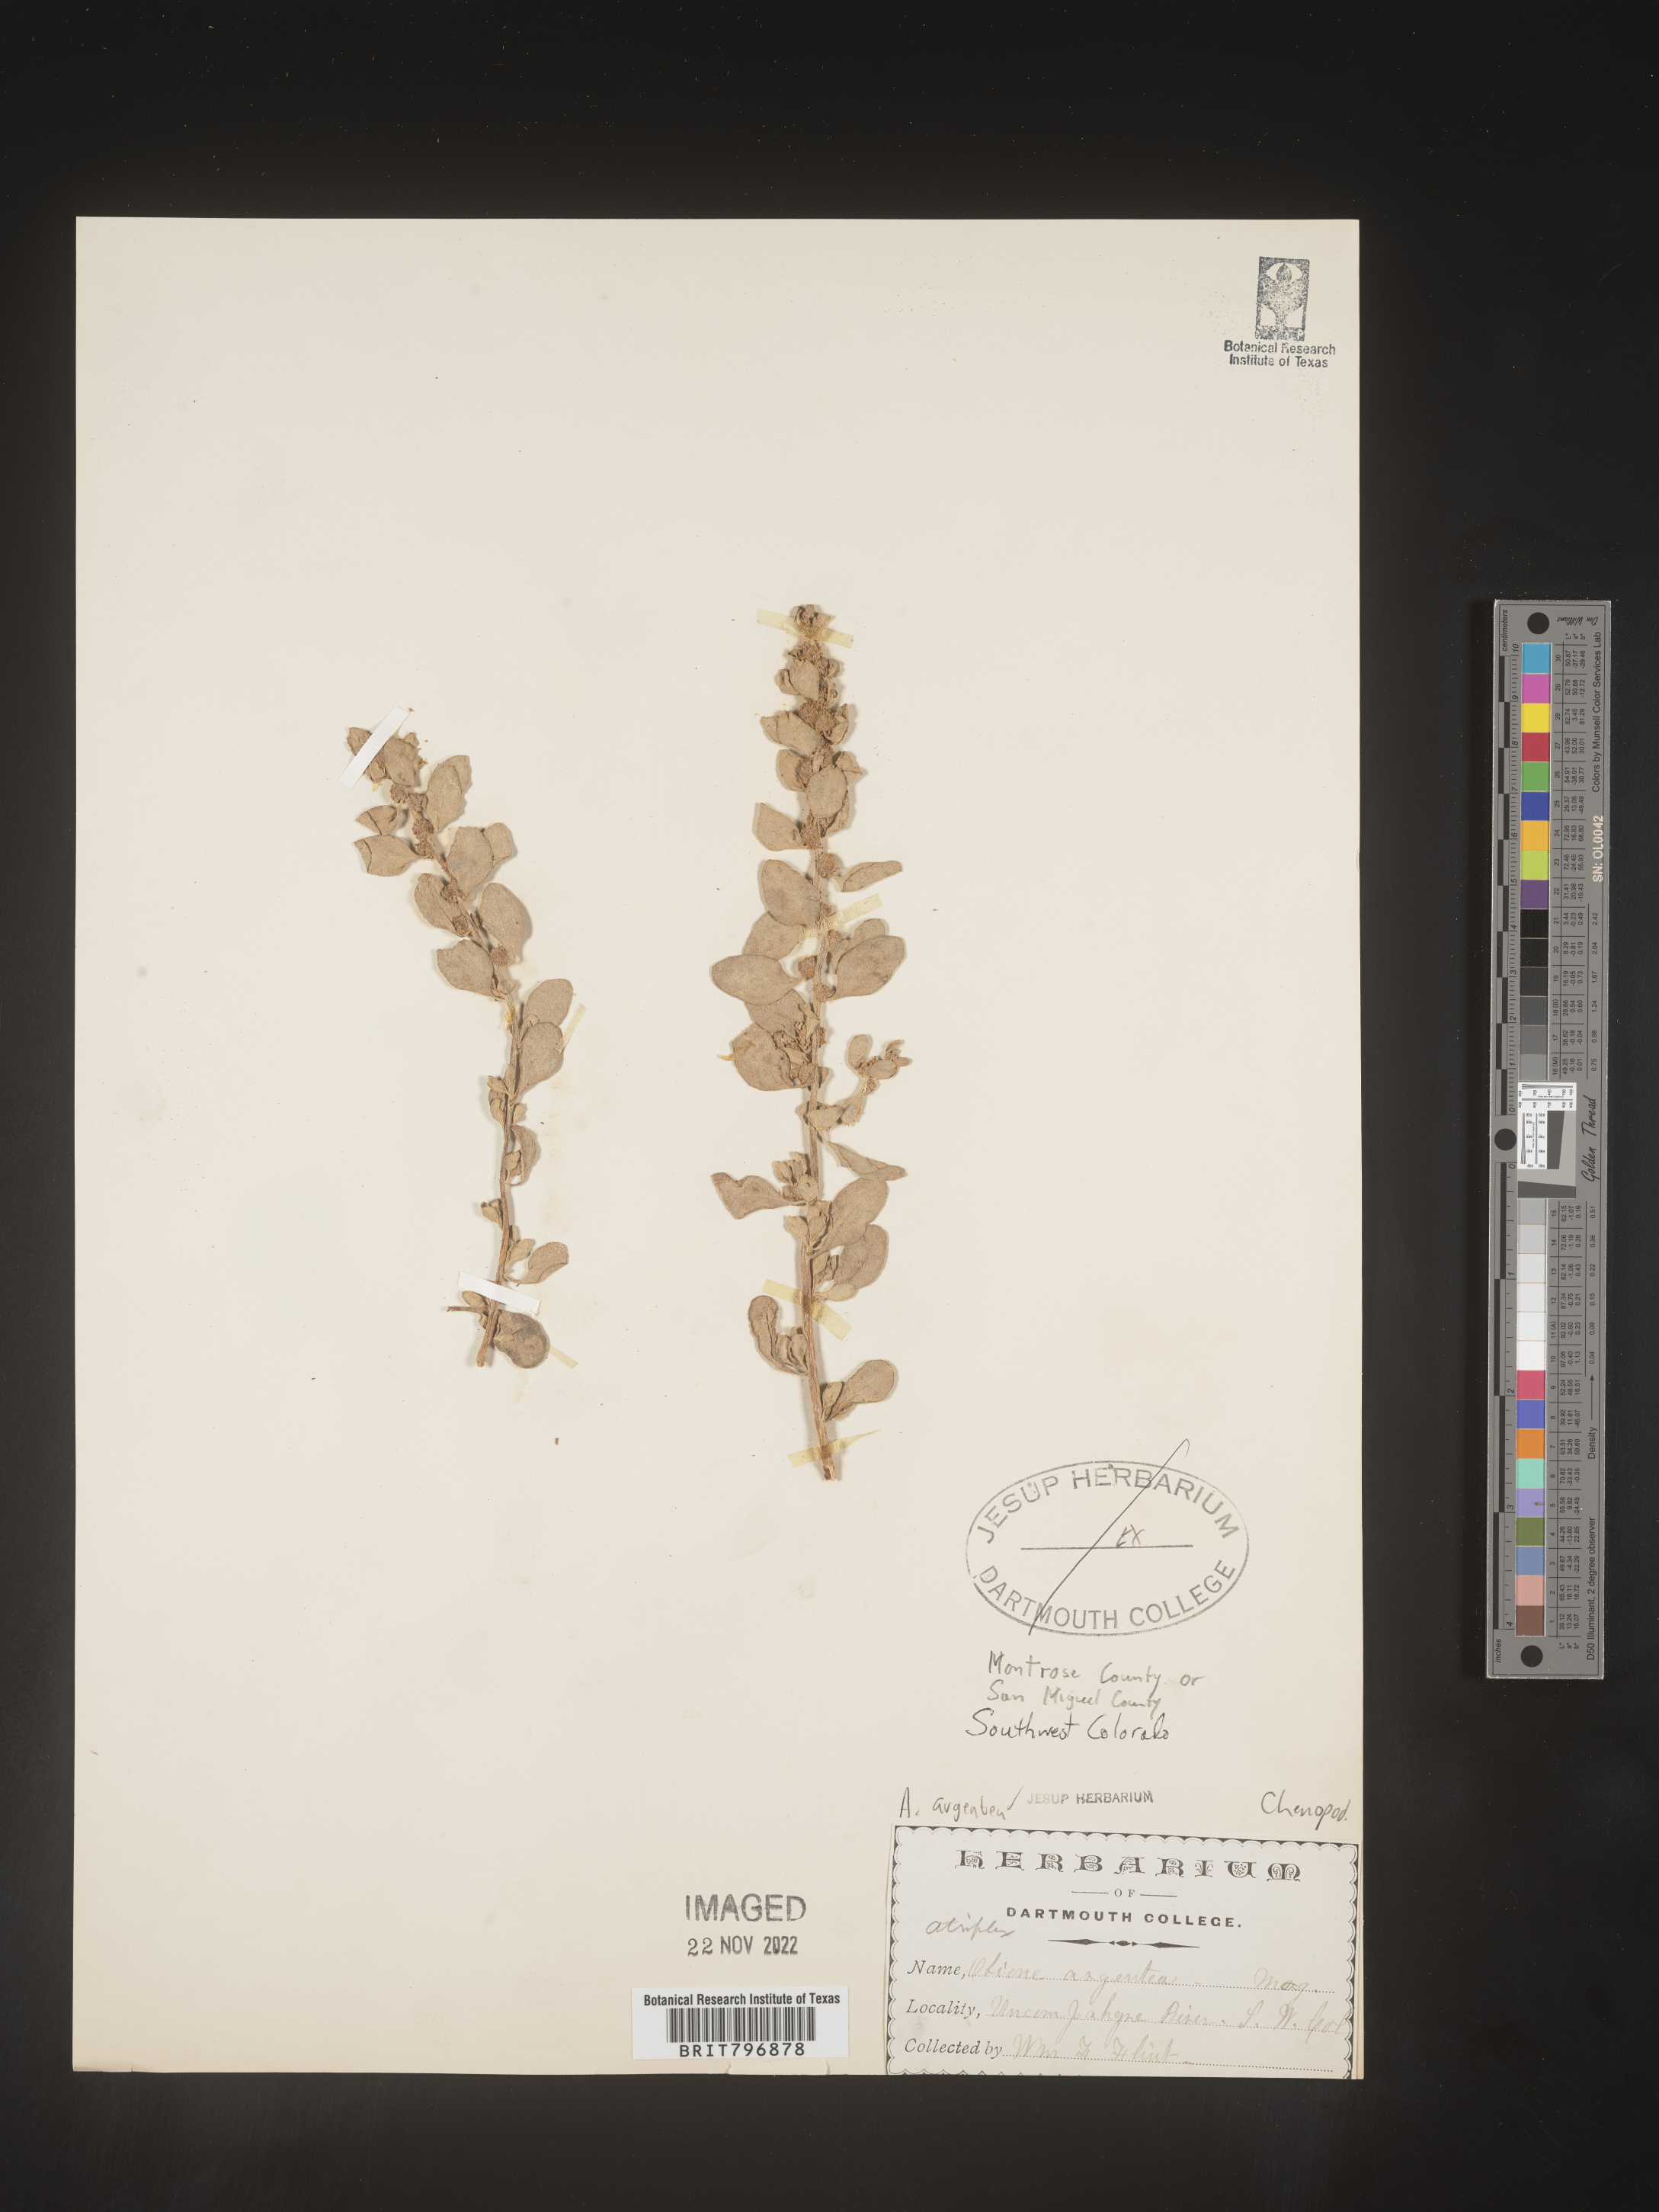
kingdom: Plantae
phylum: Tracheophyta
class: Magnoliopsida
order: Caryophyllales
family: Amaranthaceae
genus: Atriplex
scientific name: Atriplex argentea
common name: Silverscale
